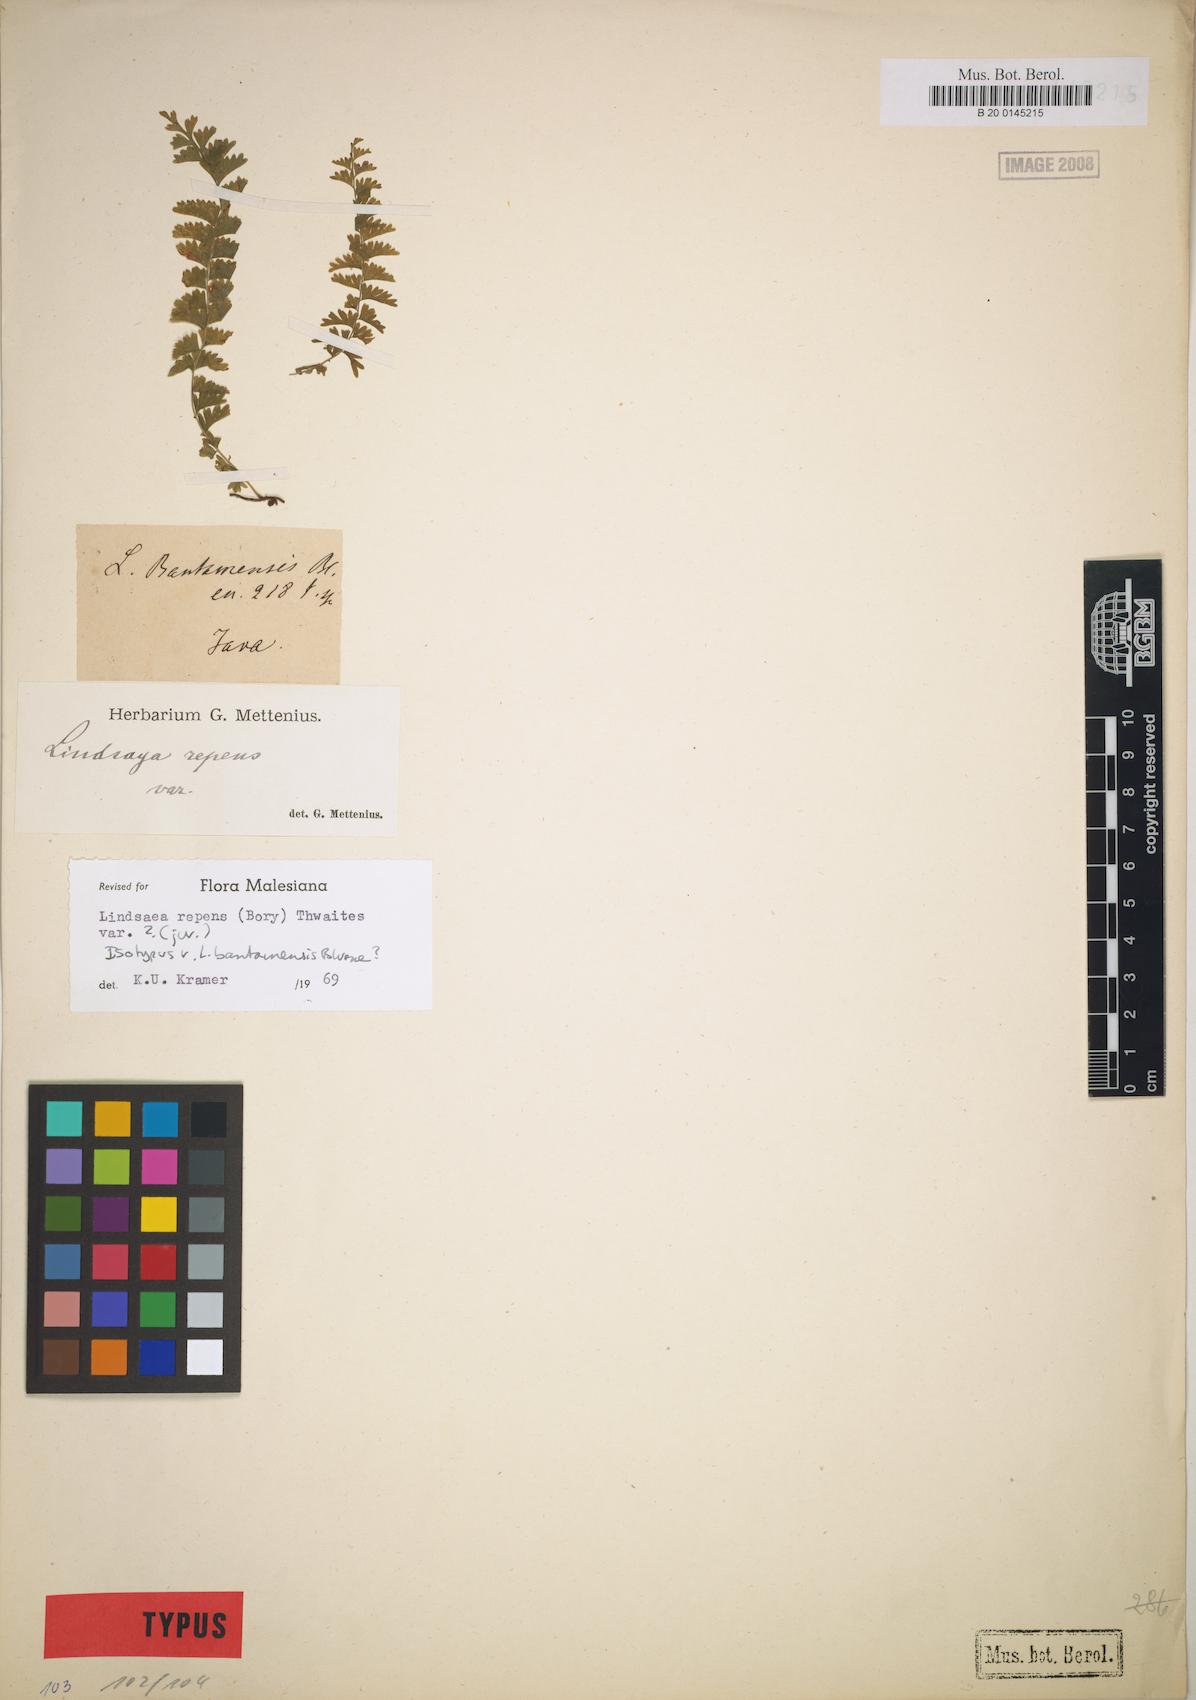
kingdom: Plantae
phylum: Tracheophyta
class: Polypodiopsida
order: Polypodiales
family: Lindsaeaceae
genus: Lindsaea
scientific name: Lindsaea repens
